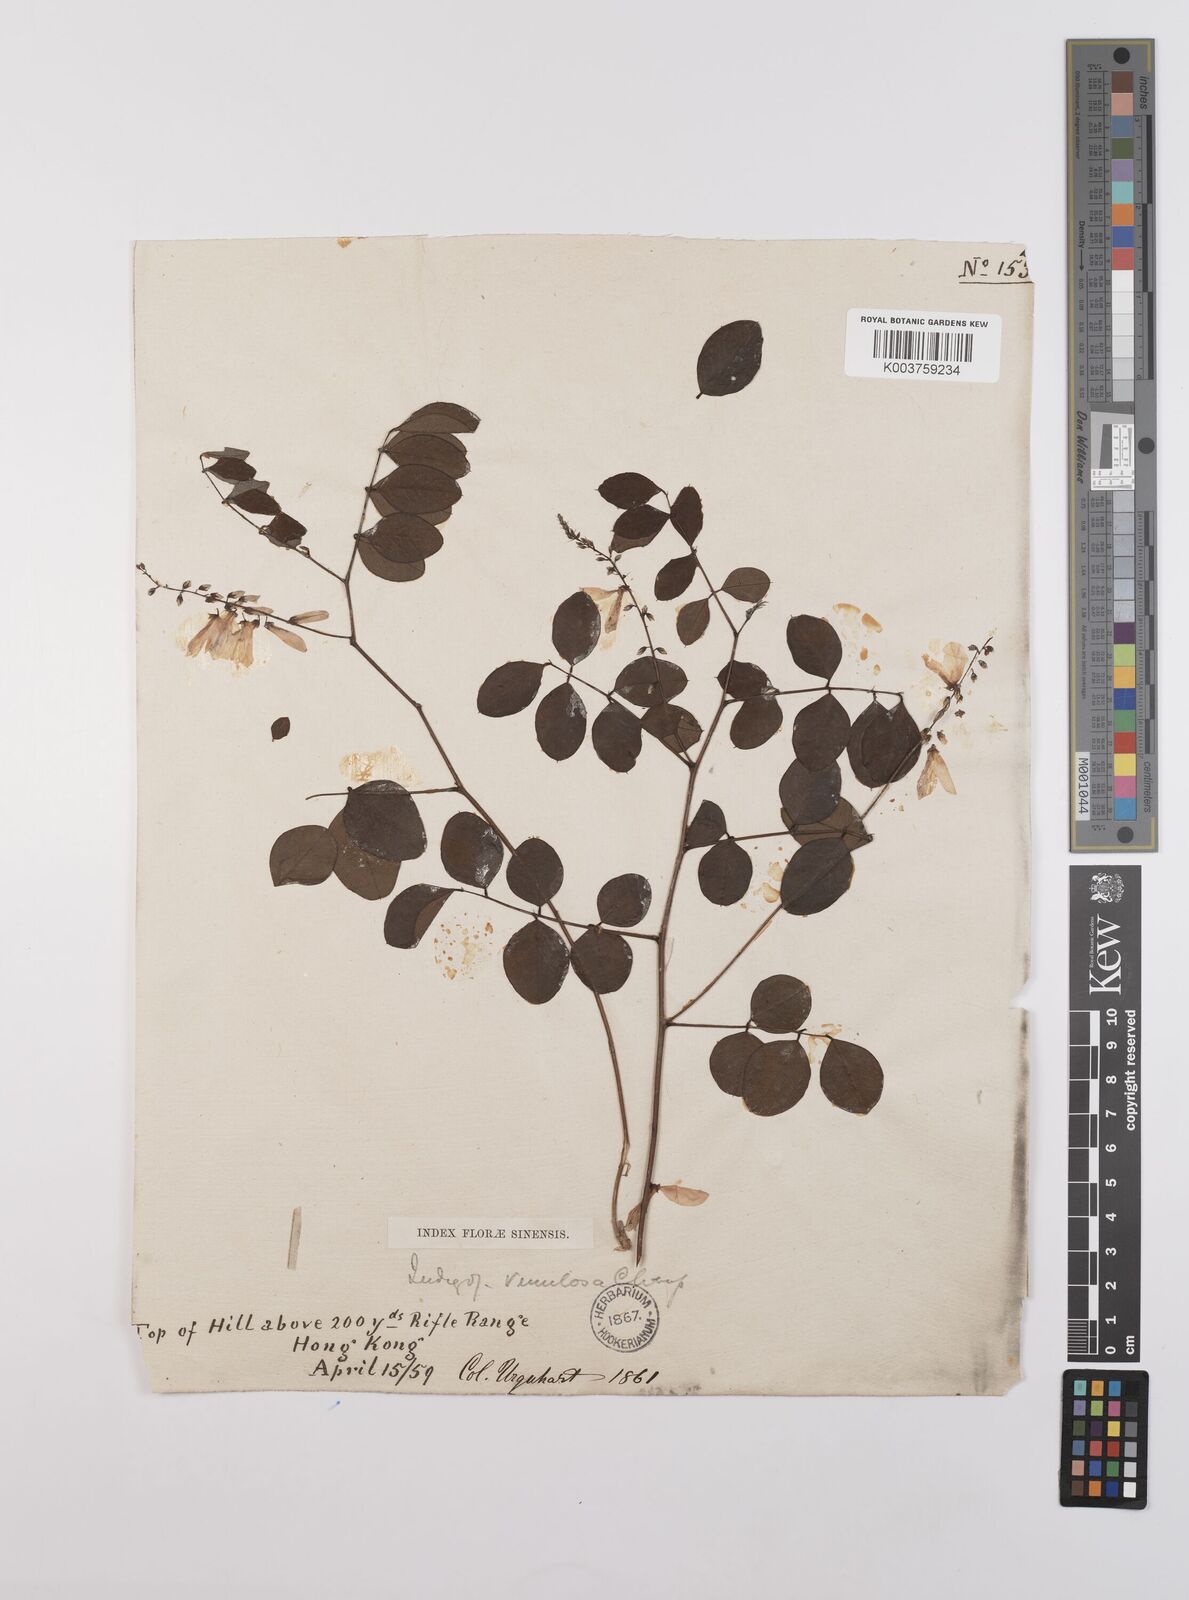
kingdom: Plantae
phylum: Tracheophyta
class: Magnoliopsida
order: Fabales
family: Fabaceae
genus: Indigofera
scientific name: Indigofera venulosa
